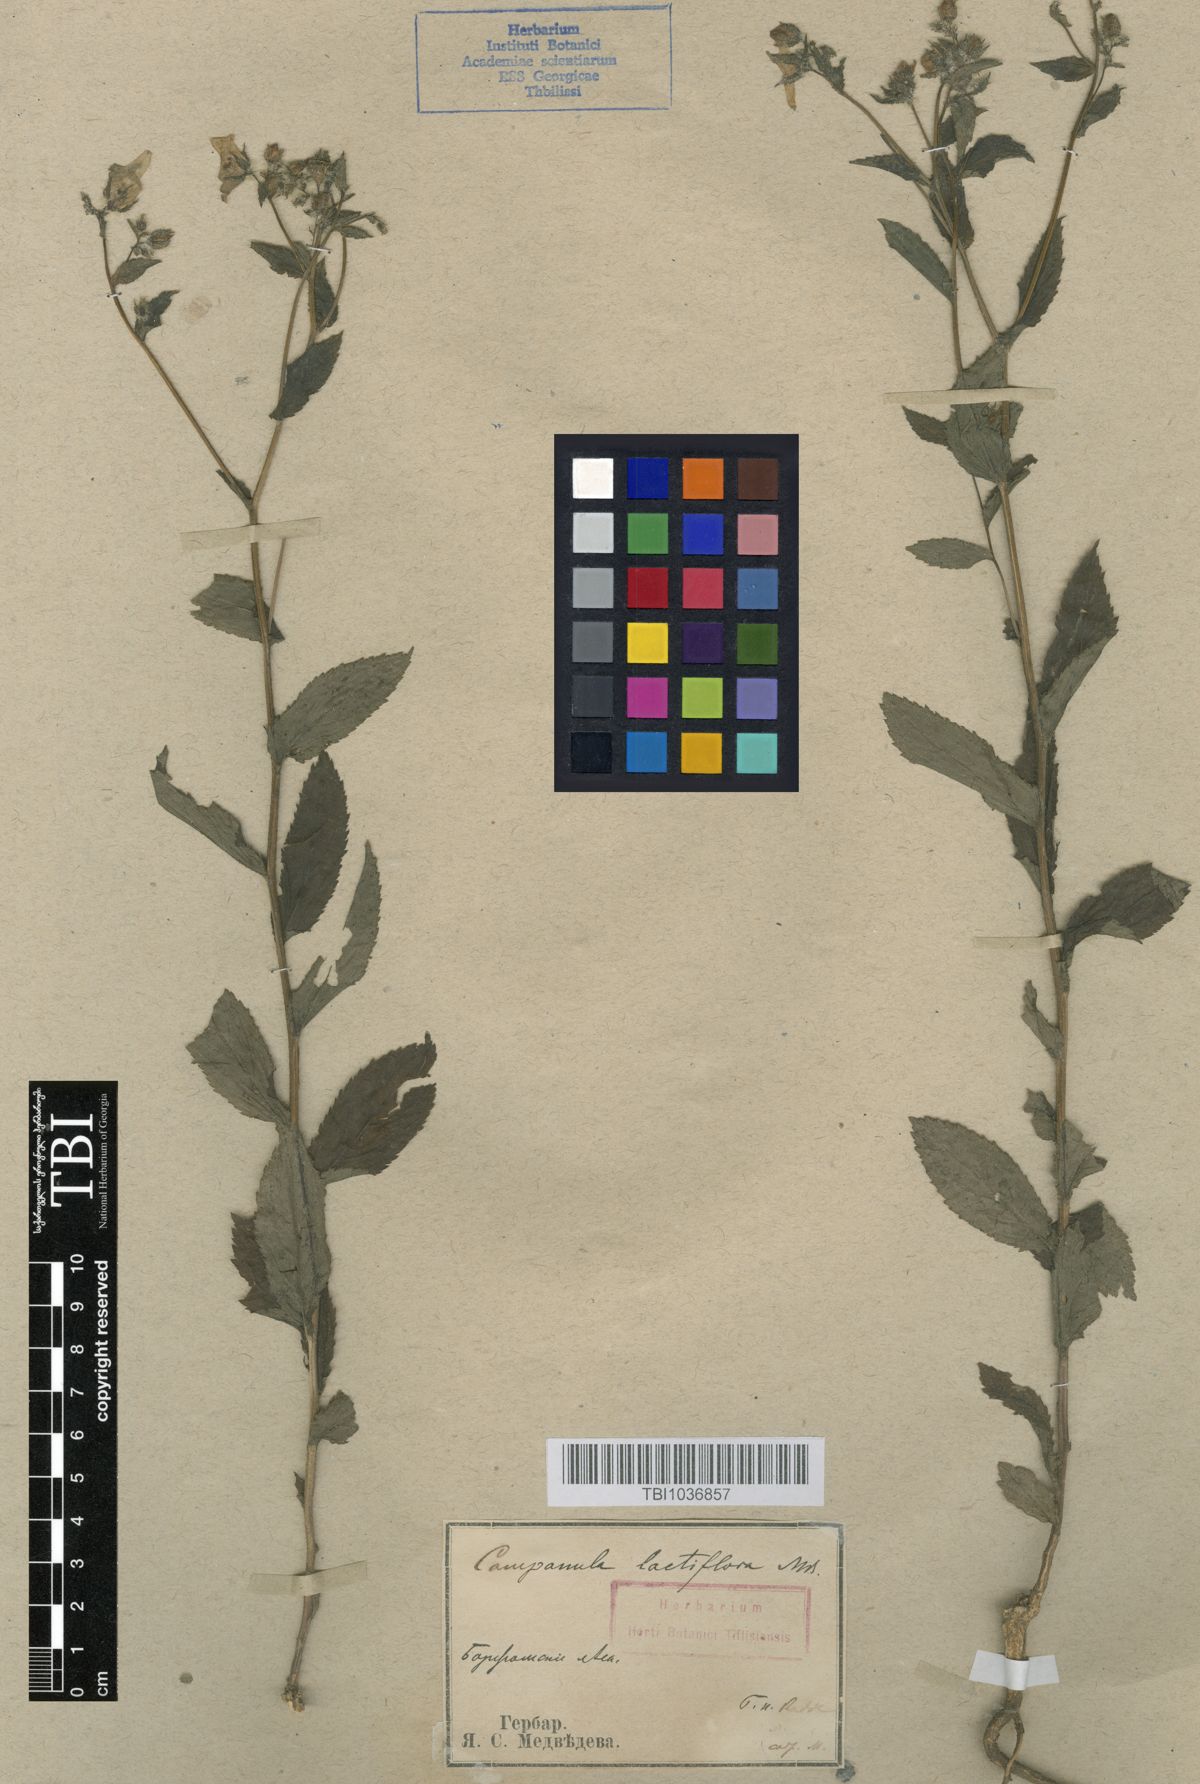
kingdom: Plantae
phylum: Tracheophyta
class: Magnoliopsida
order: Asterales
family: Campanulaceae
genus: Campanula
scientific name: Campanula lactiflora
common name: Milky bellflower
